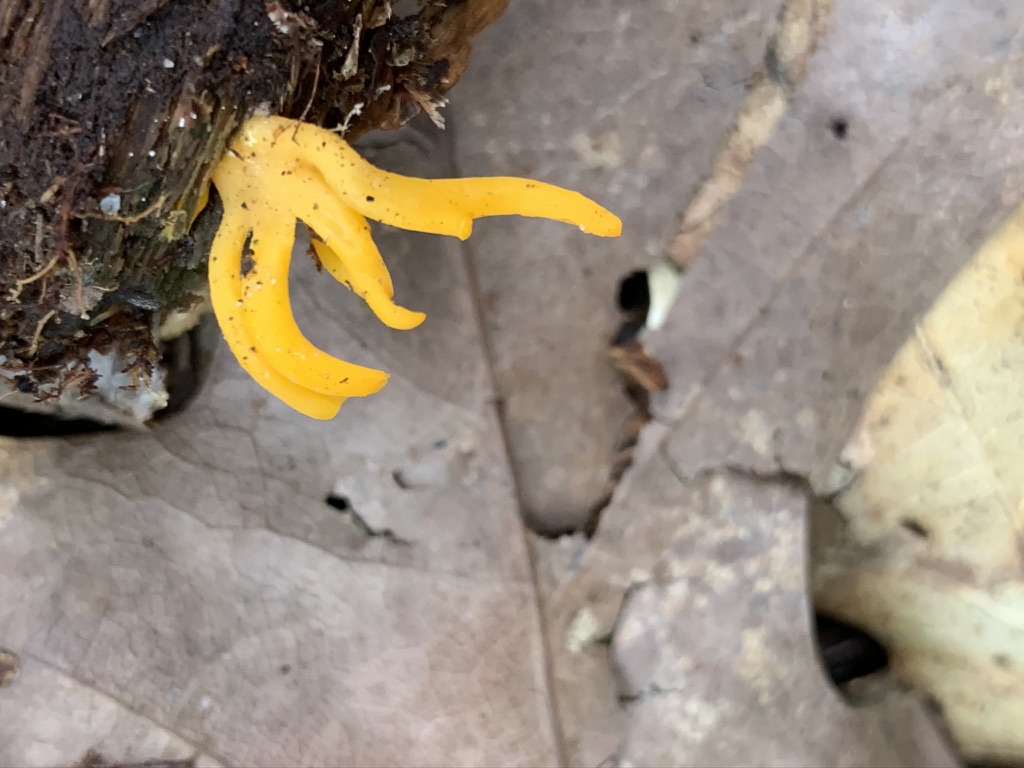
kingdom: Fungi
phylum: Basidiomycota
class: Dacrymycetes
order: Dacrymycetales
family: Dacrymycetaceae
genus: Calocera
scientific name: Calocera viscosa
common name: almindelig guldgaffel
